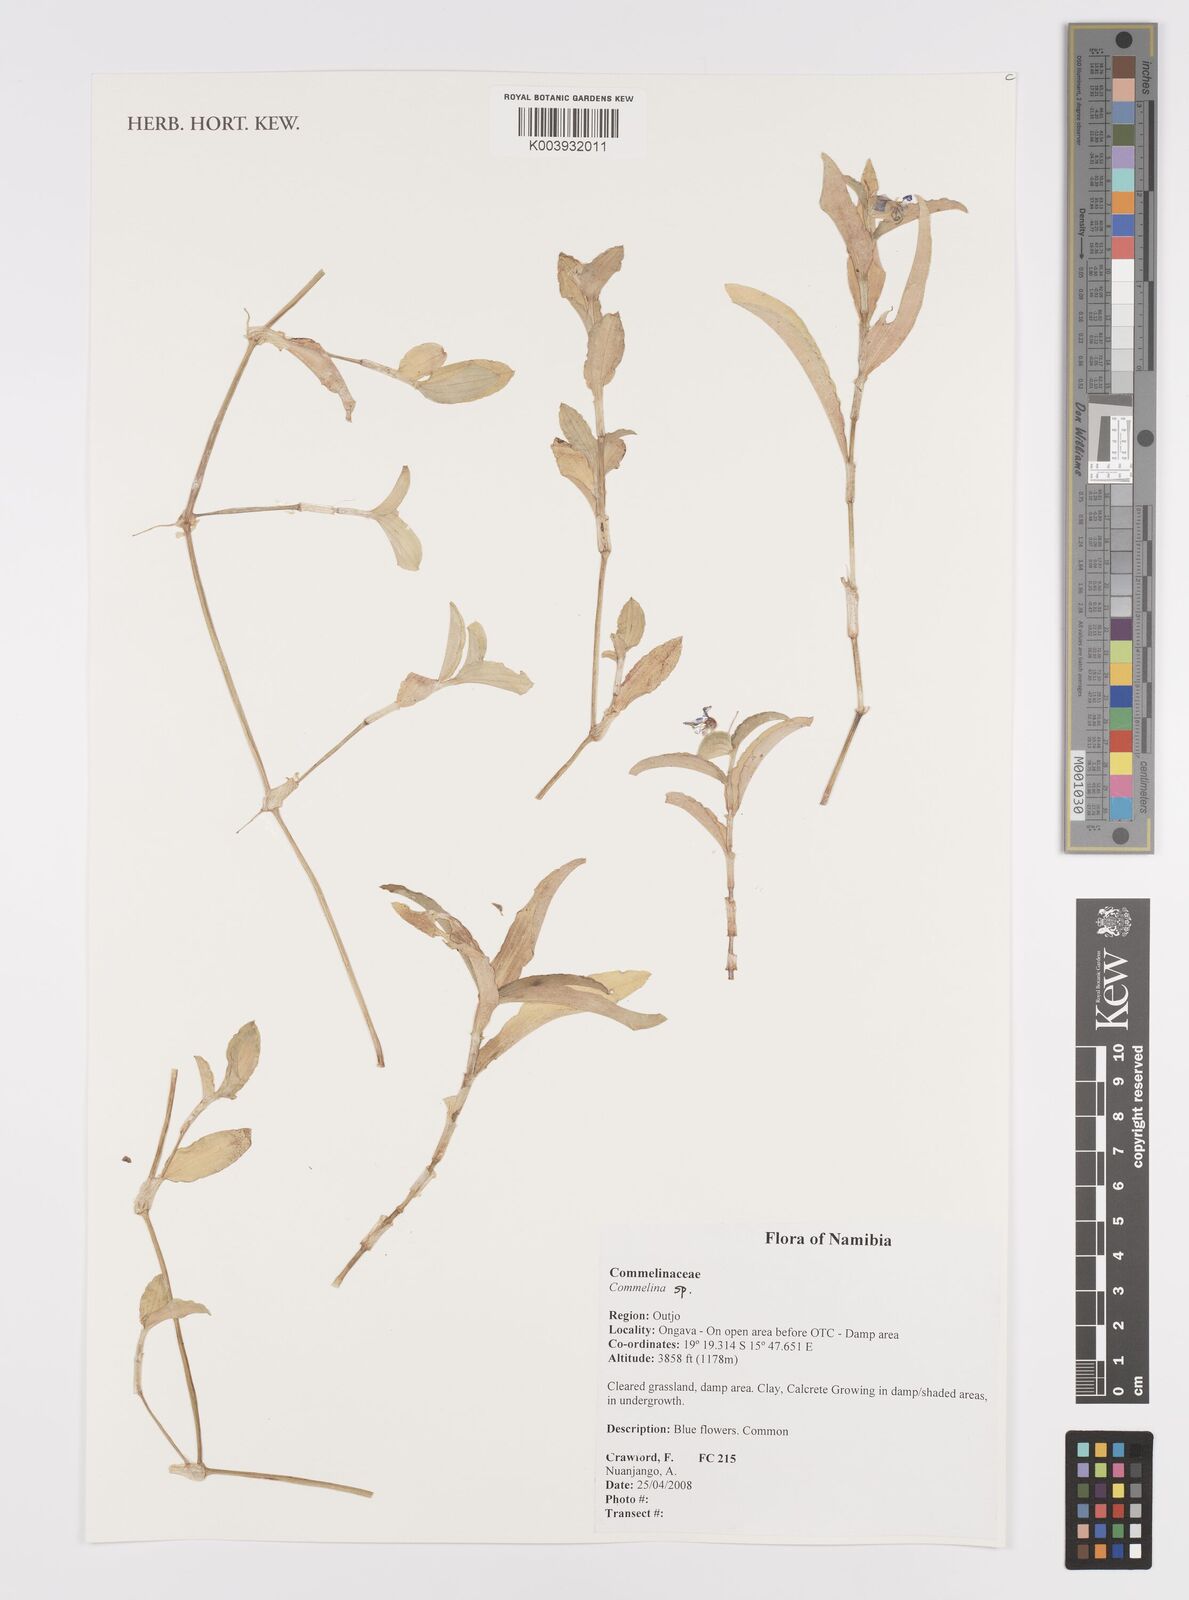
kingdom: Plantae
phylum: Tracheophyta
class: Liliopsida
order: Commelinales
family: Commelinaceae
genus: Commelina
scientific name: Commelina
